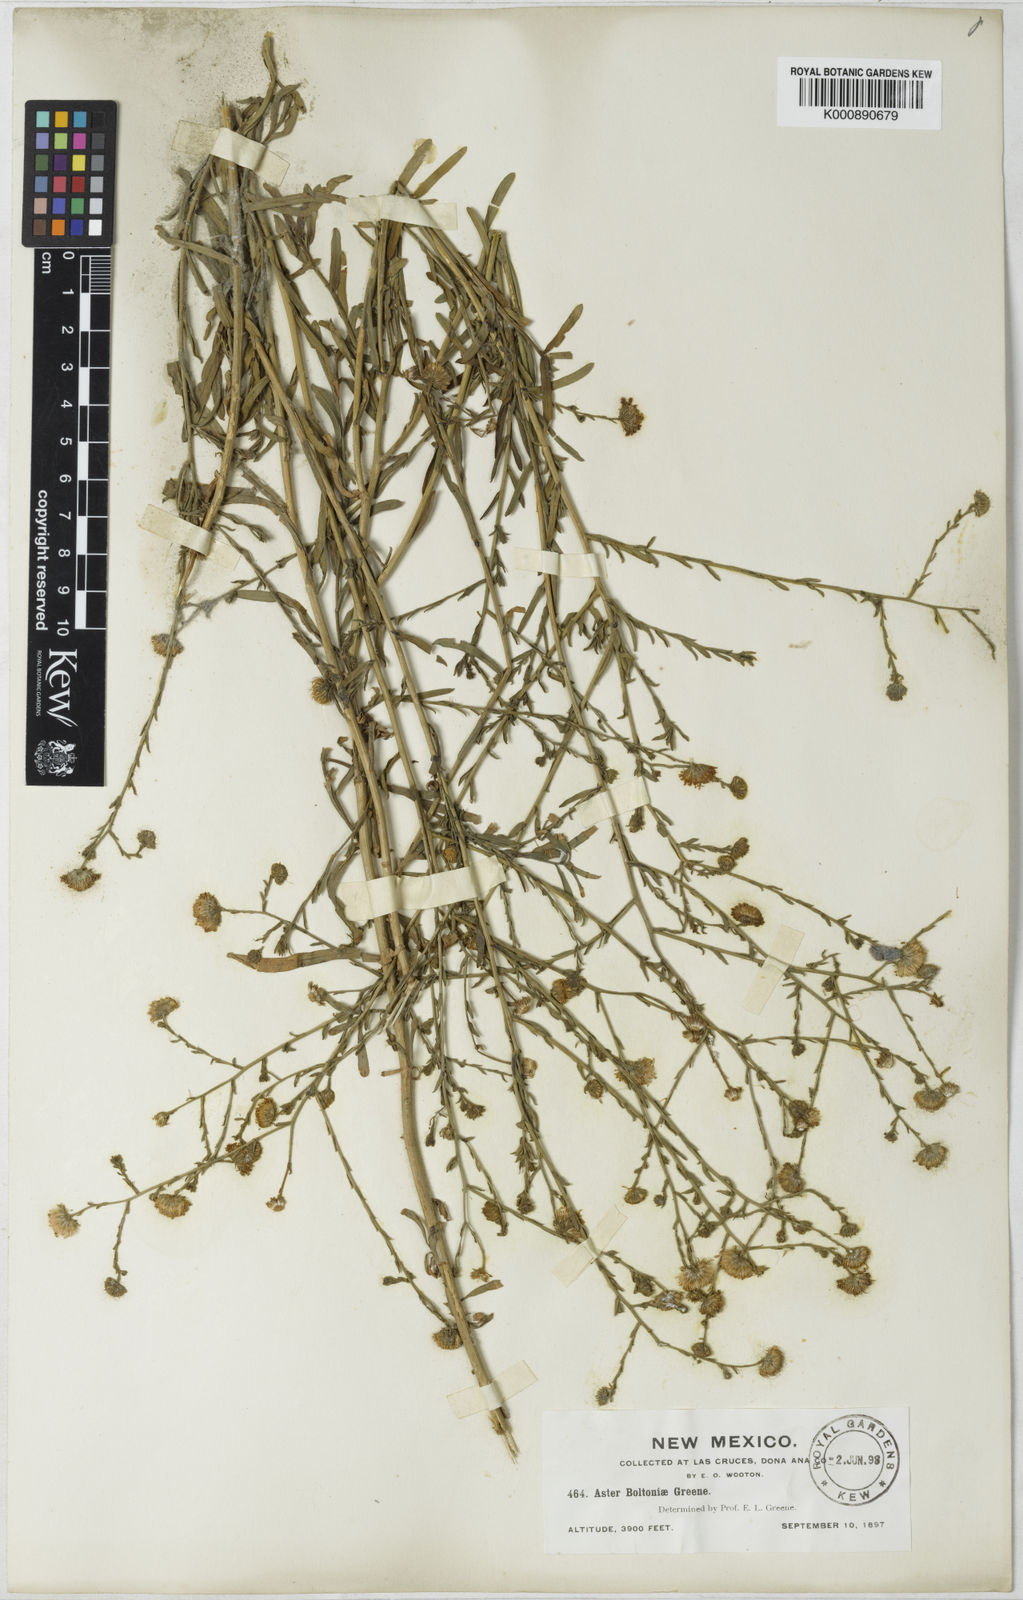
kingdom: Plantae
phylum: Tracheophyta
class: Magnoliopsida
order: Asterales
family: Asteraceae
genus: Psilactis
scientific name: Psilactis asteroides
